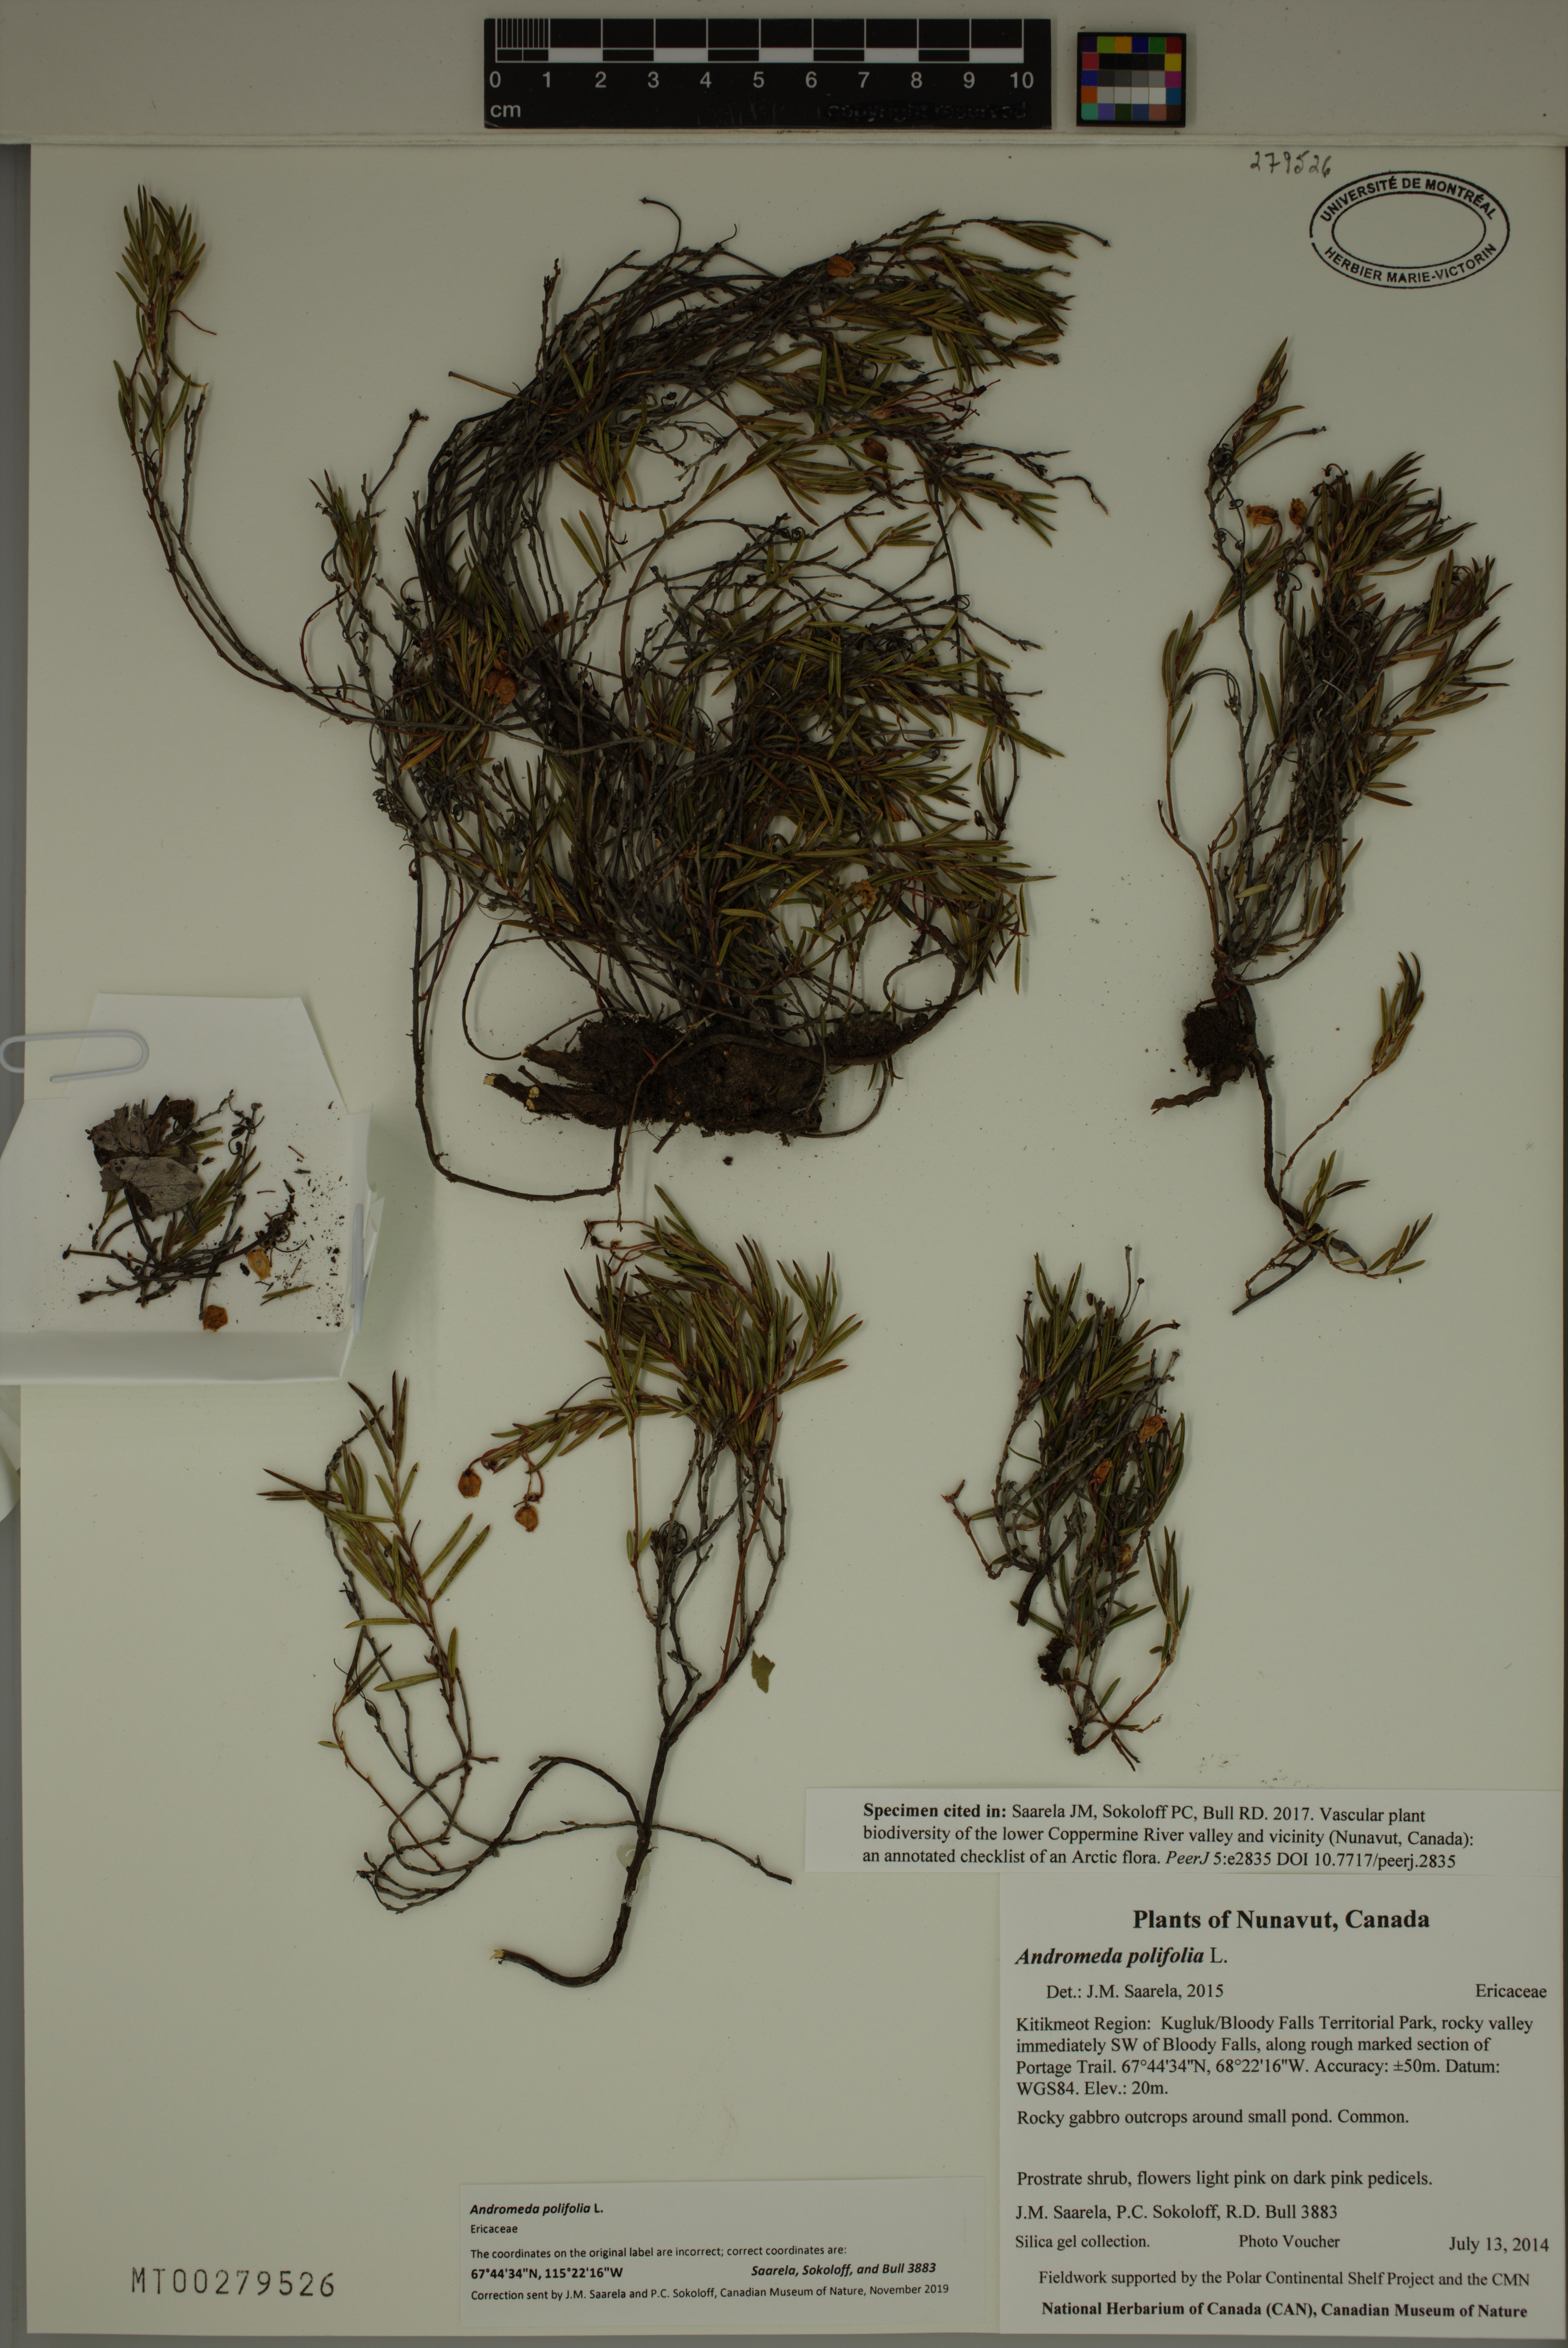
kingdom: Plantae
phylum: Tracheophyta
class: Magnoliopsida
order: Ericales
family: Ericaceae
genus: Andromeda
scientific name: Andromeda polifolia
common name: Bog-rosemary
